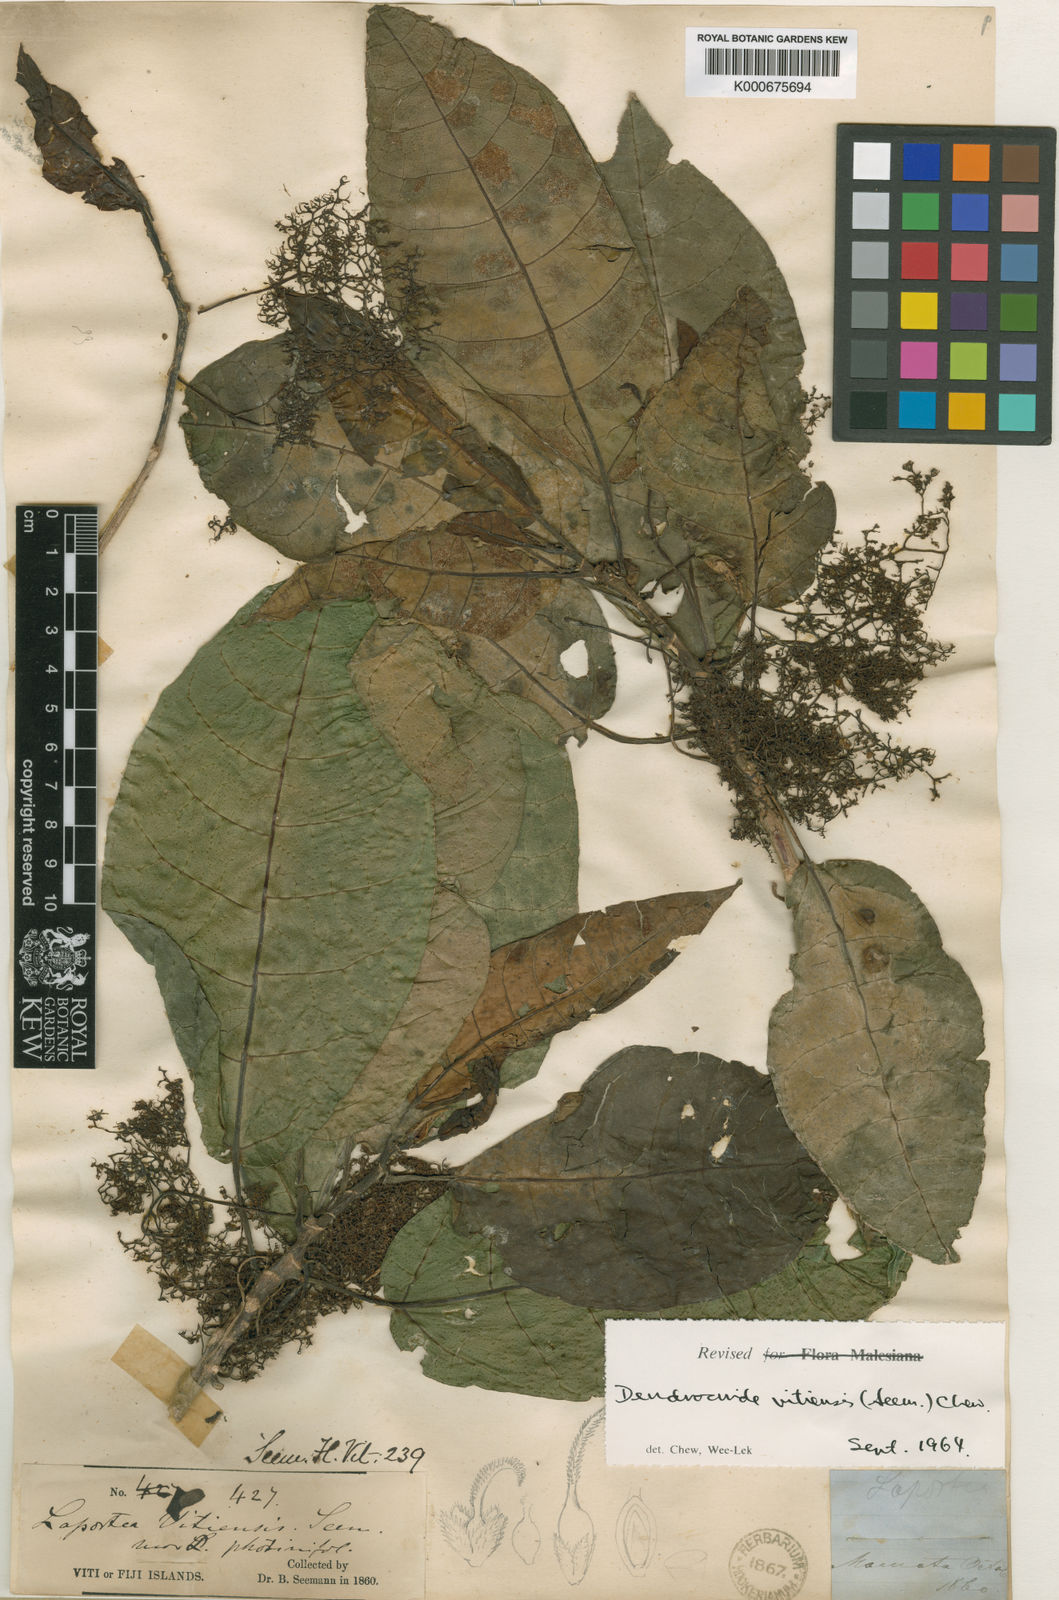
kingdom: Plantae
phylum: Tracheophyta
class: Magnoliopsida
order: Rosales
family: Urticaceae
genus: Dendrocnide
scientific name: Dendrocnide vitiensis
